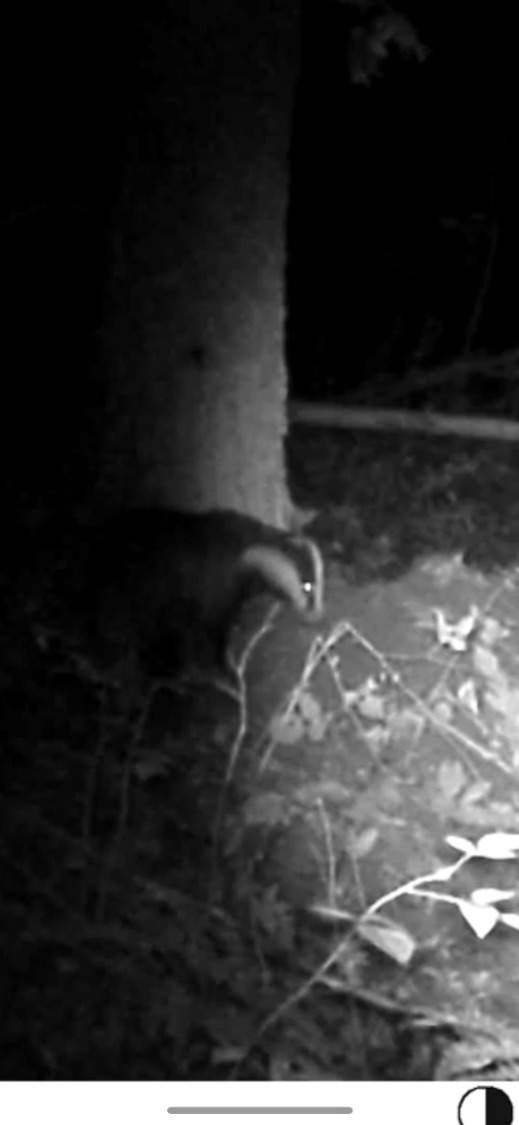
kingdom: Animalia
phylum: Chordata
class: Mammalia
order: Carnivora
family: Mustelidae
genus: Meles
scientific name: Meles meles
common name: Grævling
